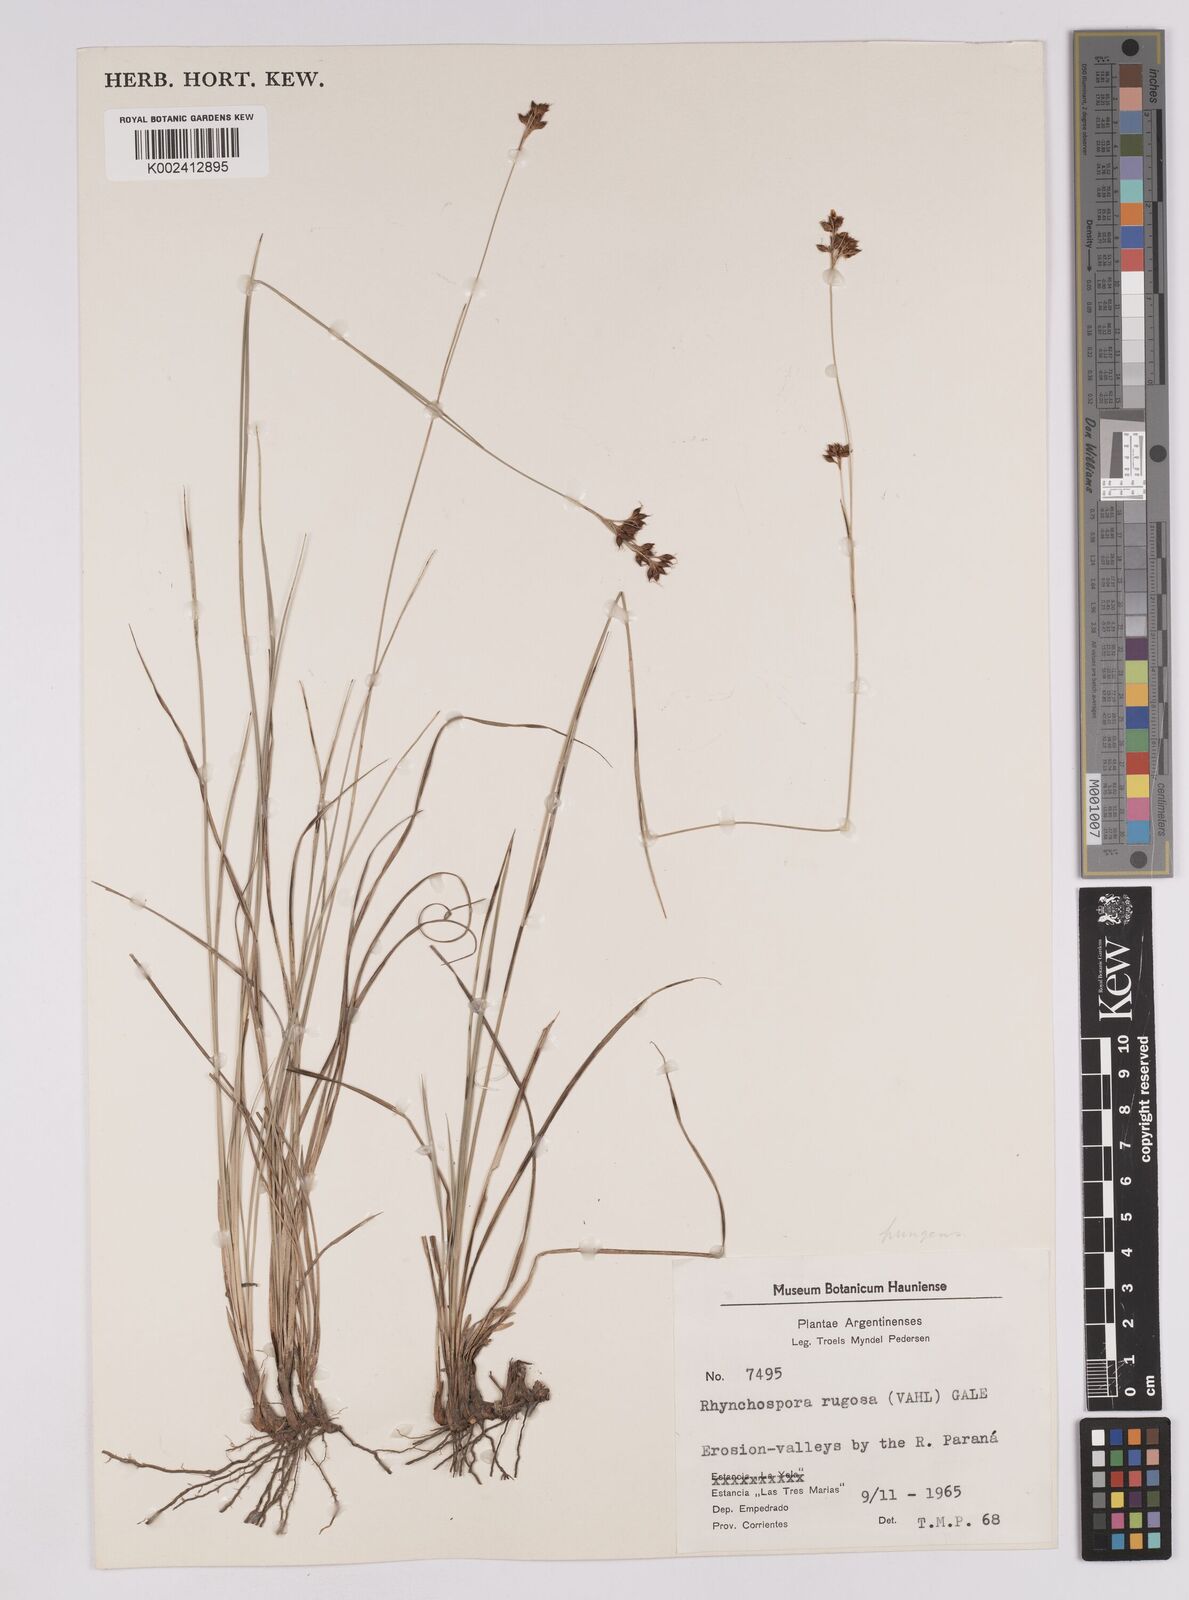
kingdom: Plantae
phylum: Tracheophyta
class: Liliopsida
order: Poales
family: Cyperaceae
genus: Rhynchospora
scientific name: Rhynchospora rugosa
